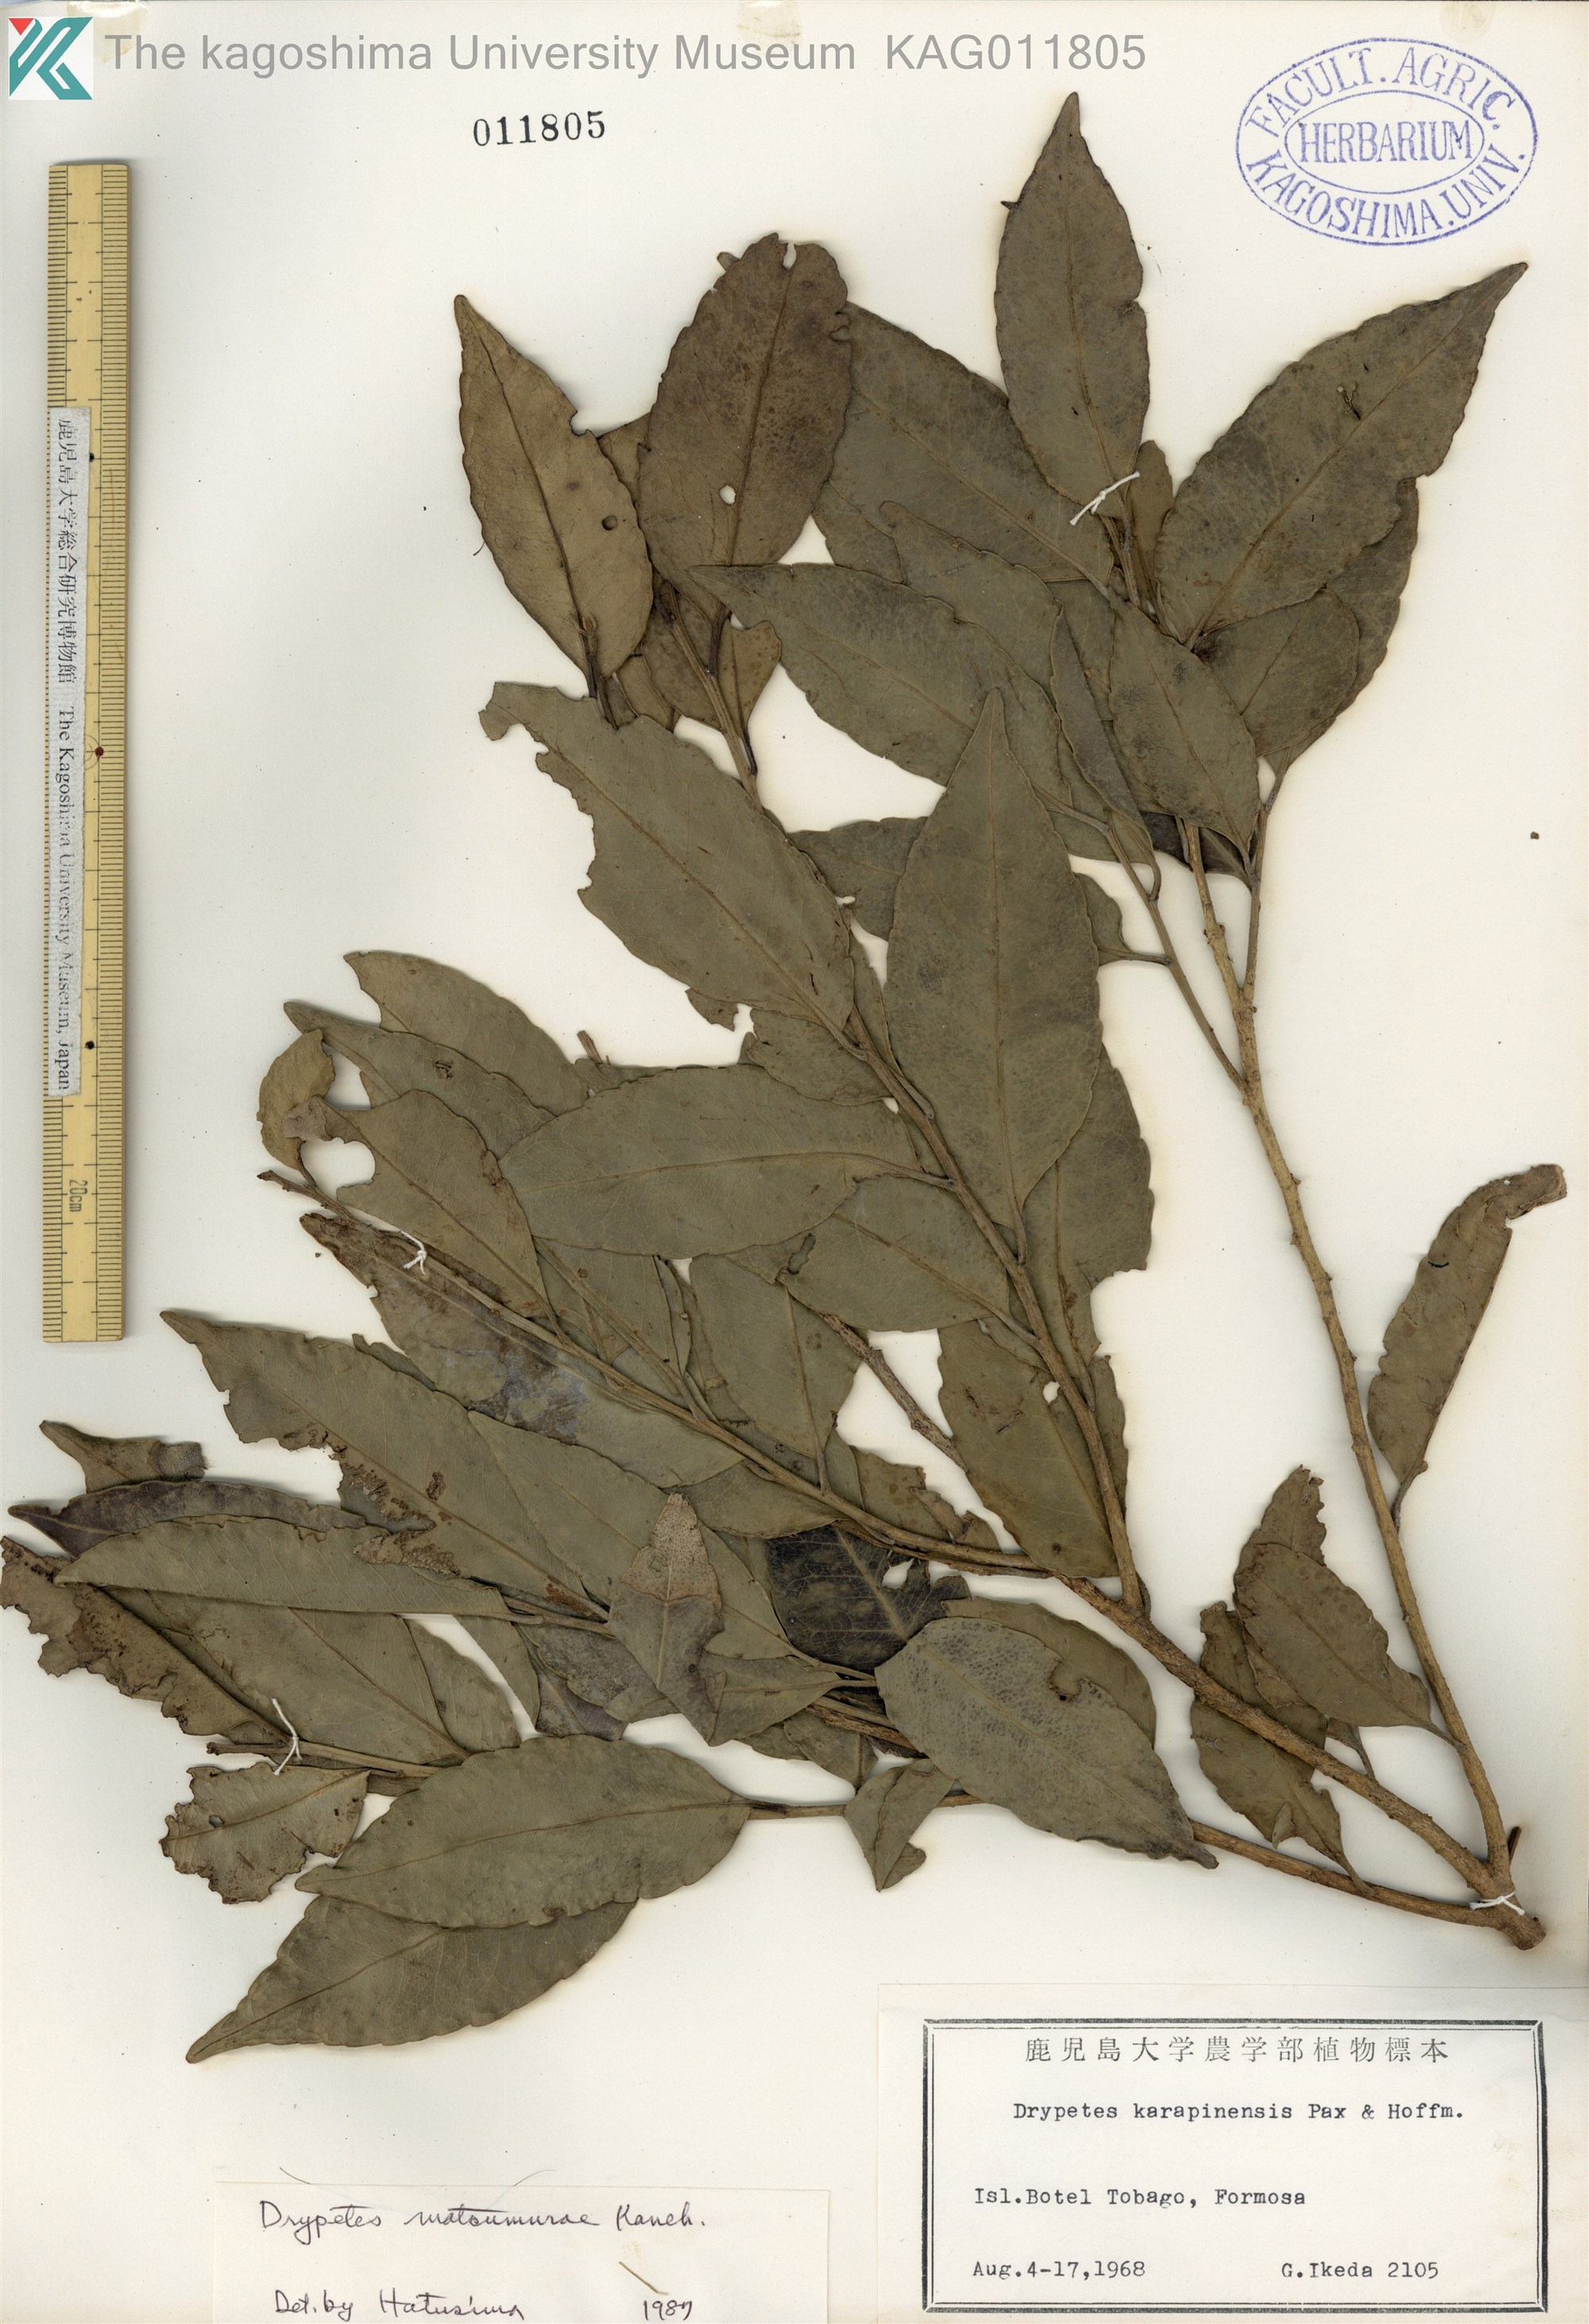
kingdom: Plantae
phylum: Tracheophyta
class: Magnoliopsida
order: Malpighiales
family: Putranjivaceae
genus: Putranjiva
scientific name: Putranjiva matsumurae
